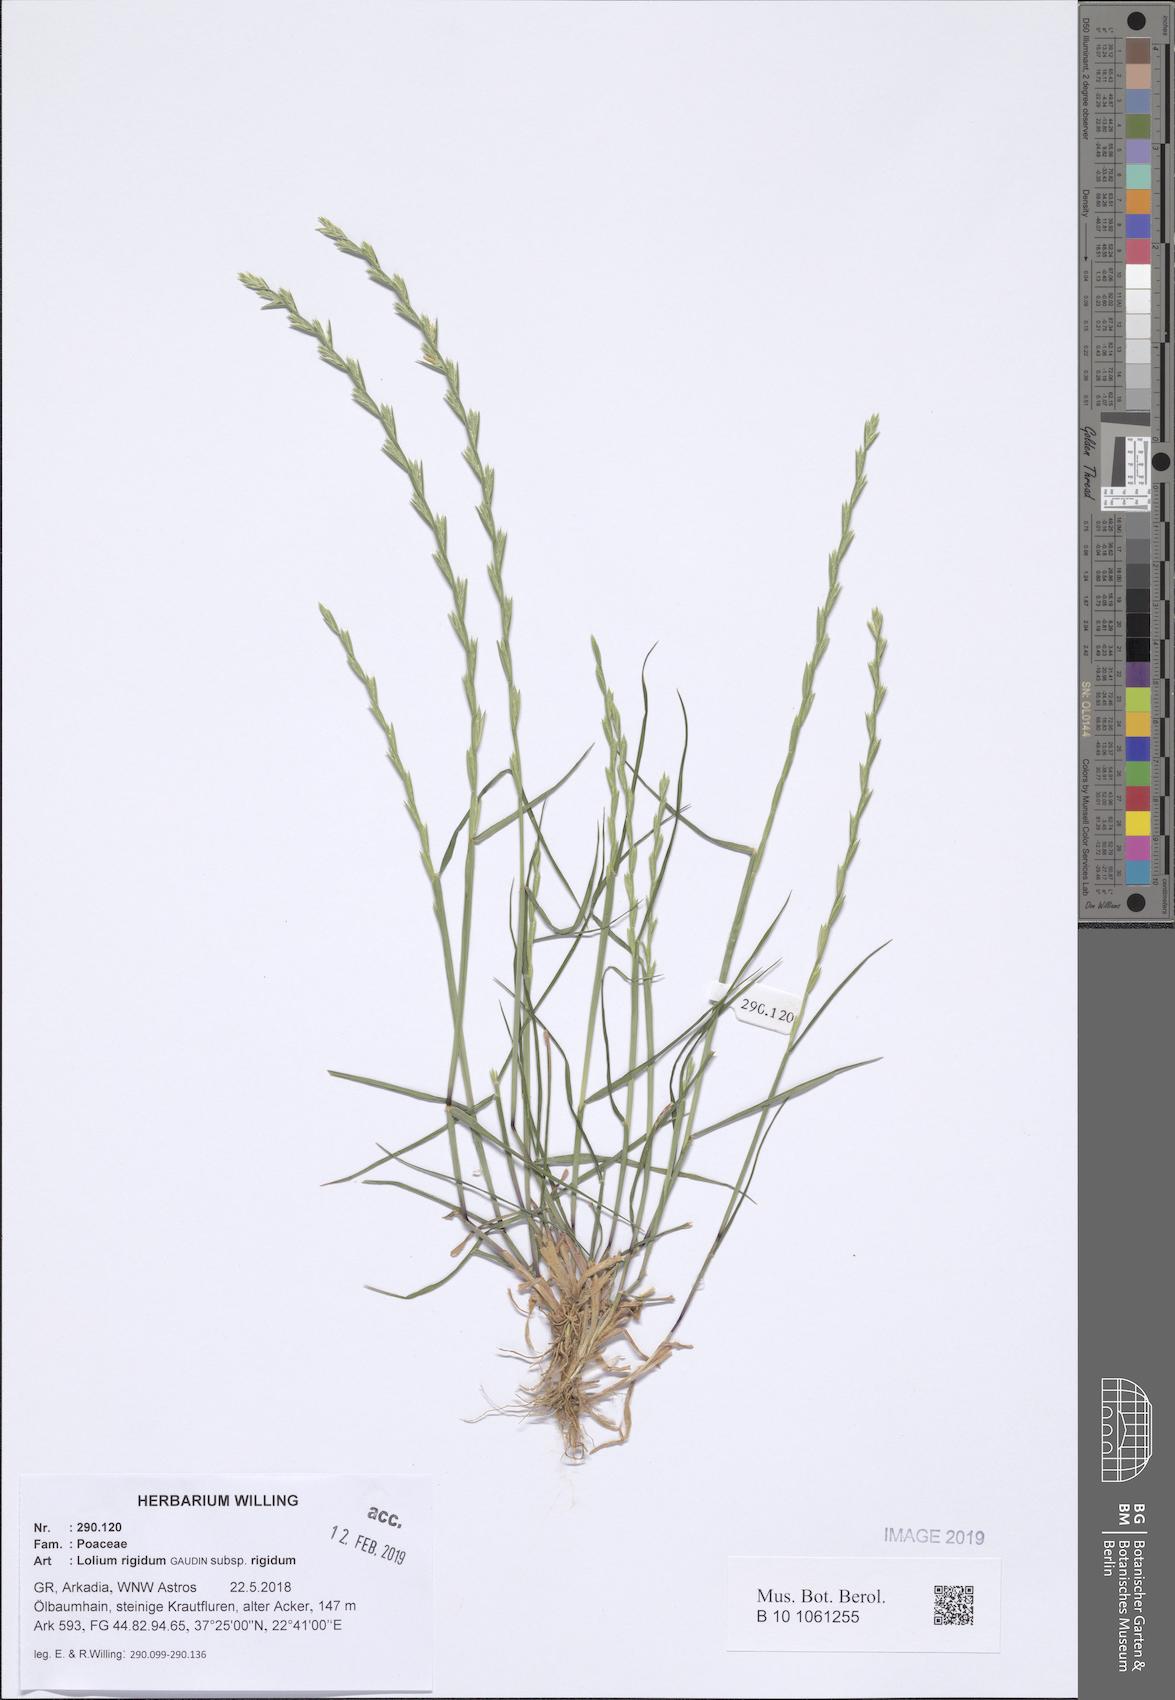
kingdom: Plantae
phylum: Tracheophyta
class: Liliopsida
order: Poales
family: Poaceae
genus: Lolium
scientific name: Lolium rigidum
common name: Wimmera ryegrass
